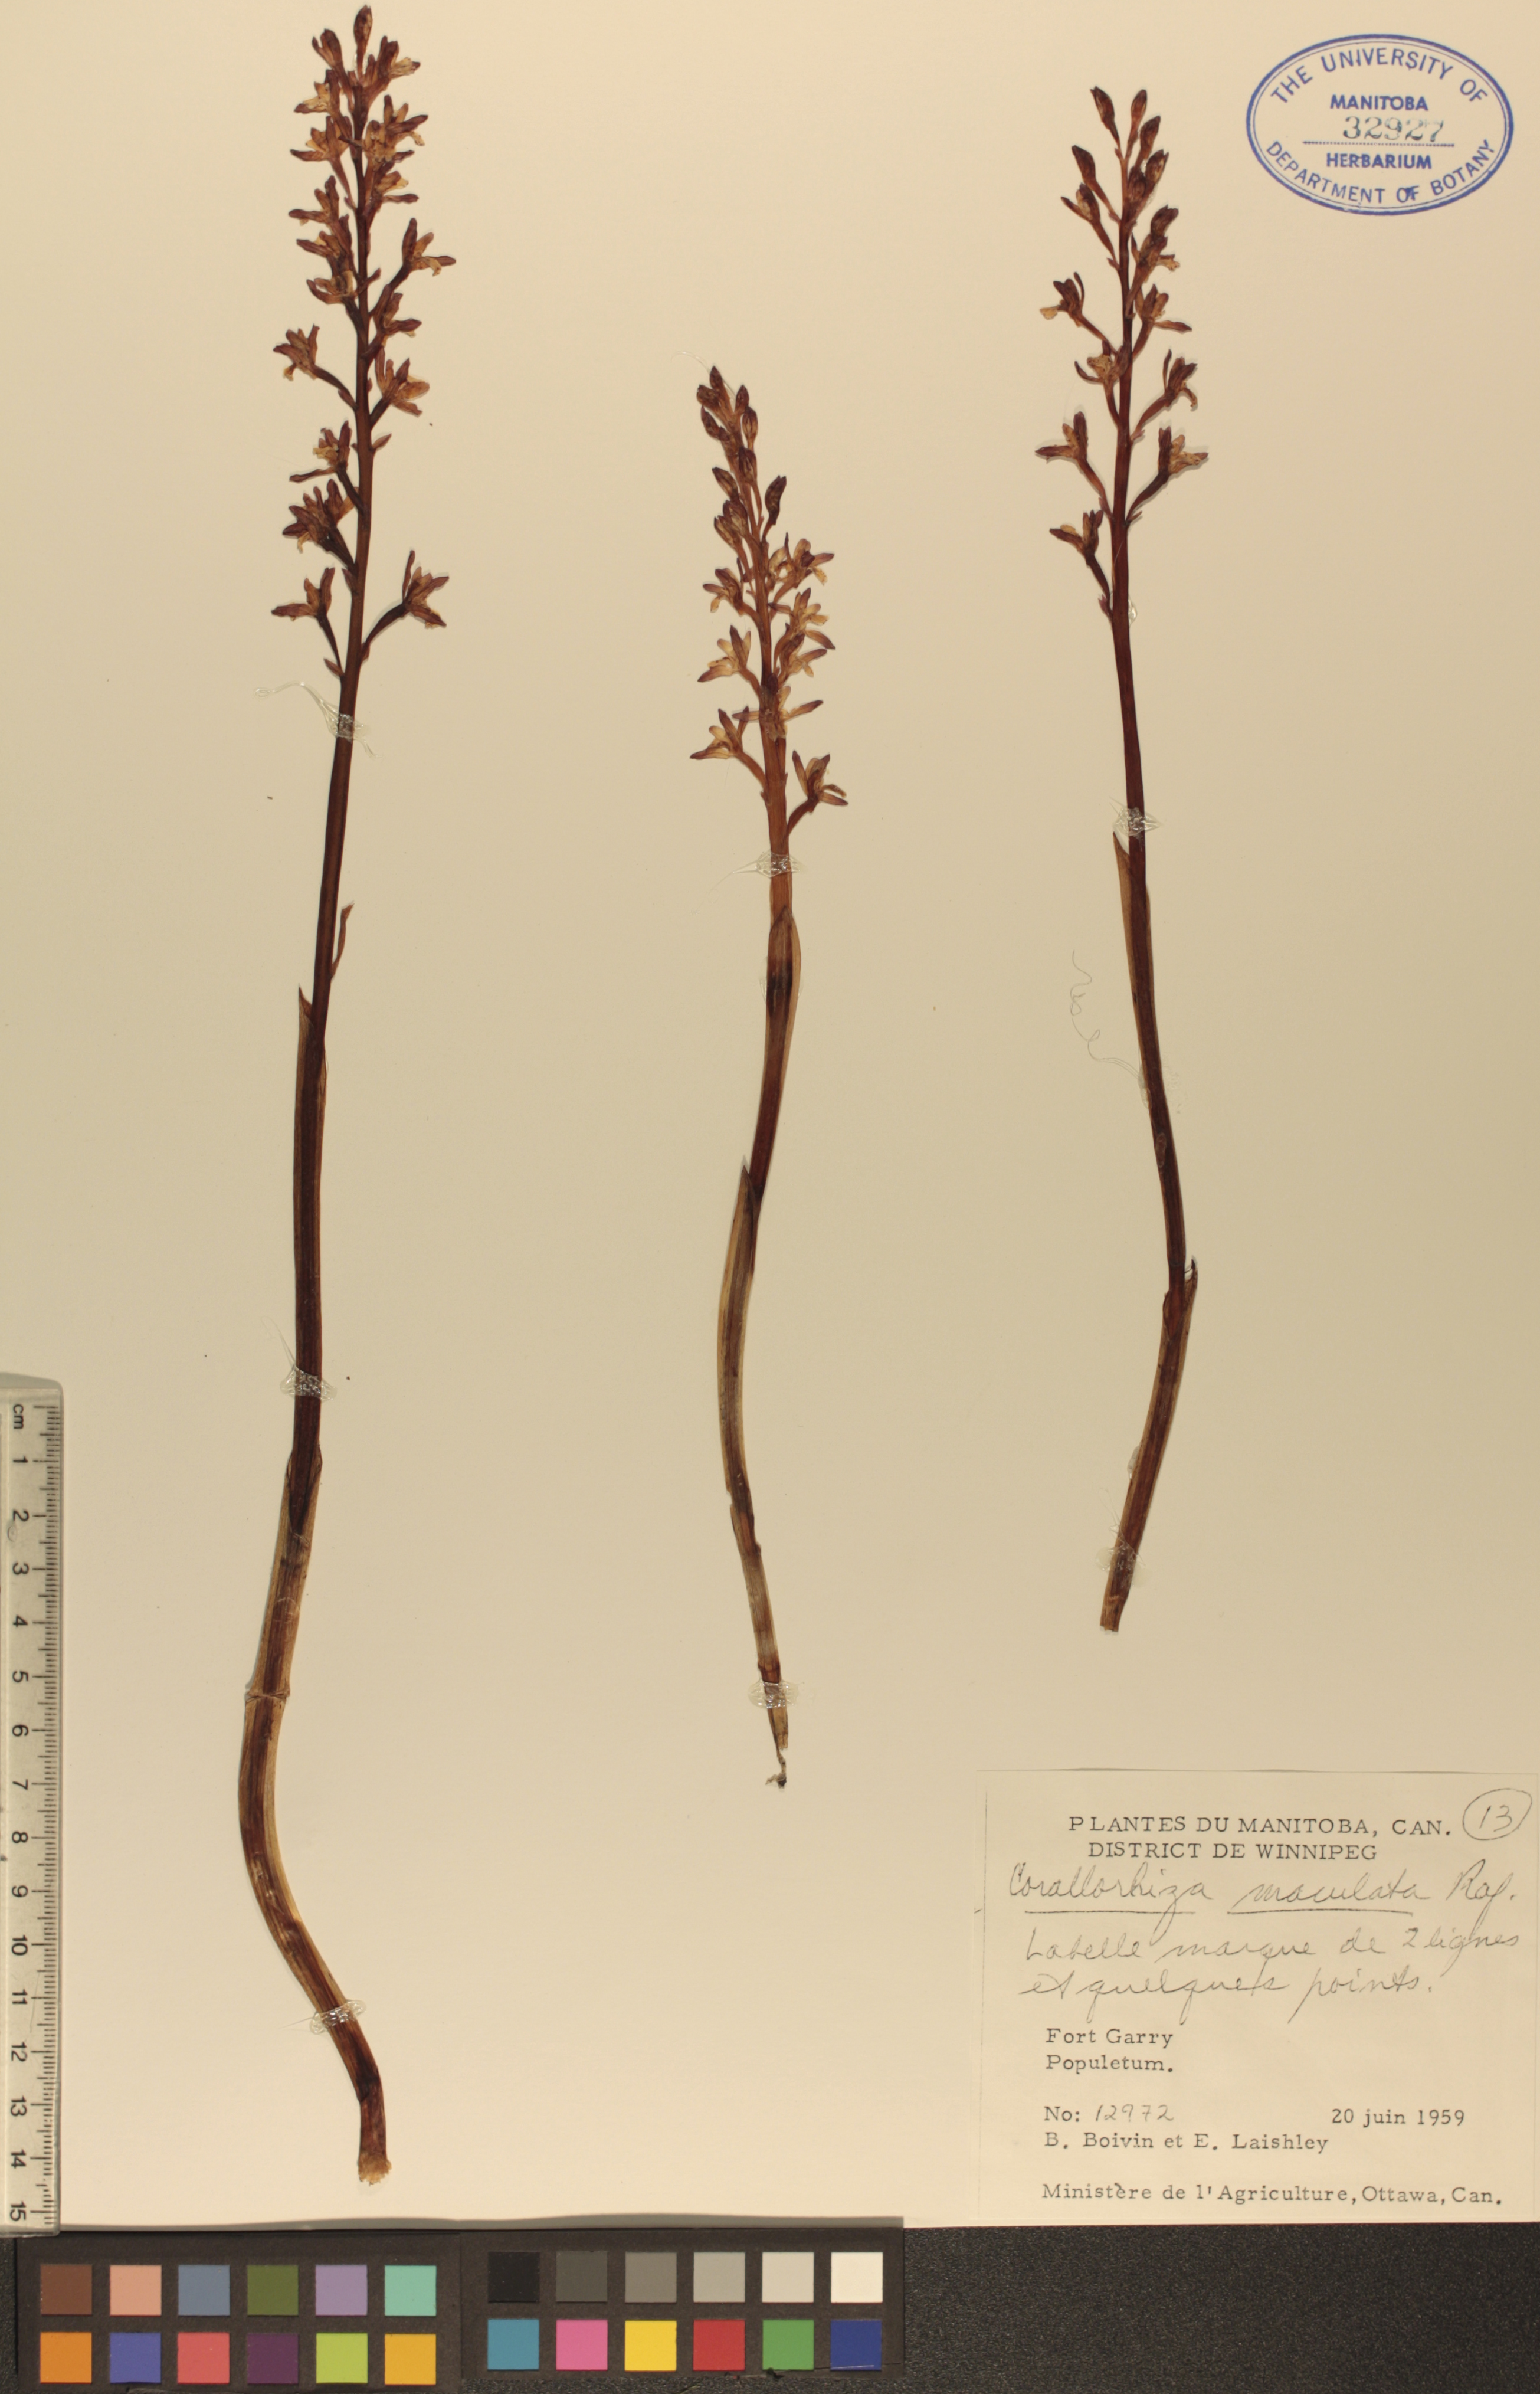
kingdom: Plantae
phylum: Tracheophyta
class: Liliopsida
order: Asparagales
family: Orchidaceae
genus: Corallorhiza
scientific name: Corallorhiza maculata
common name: Spotted coralroot
